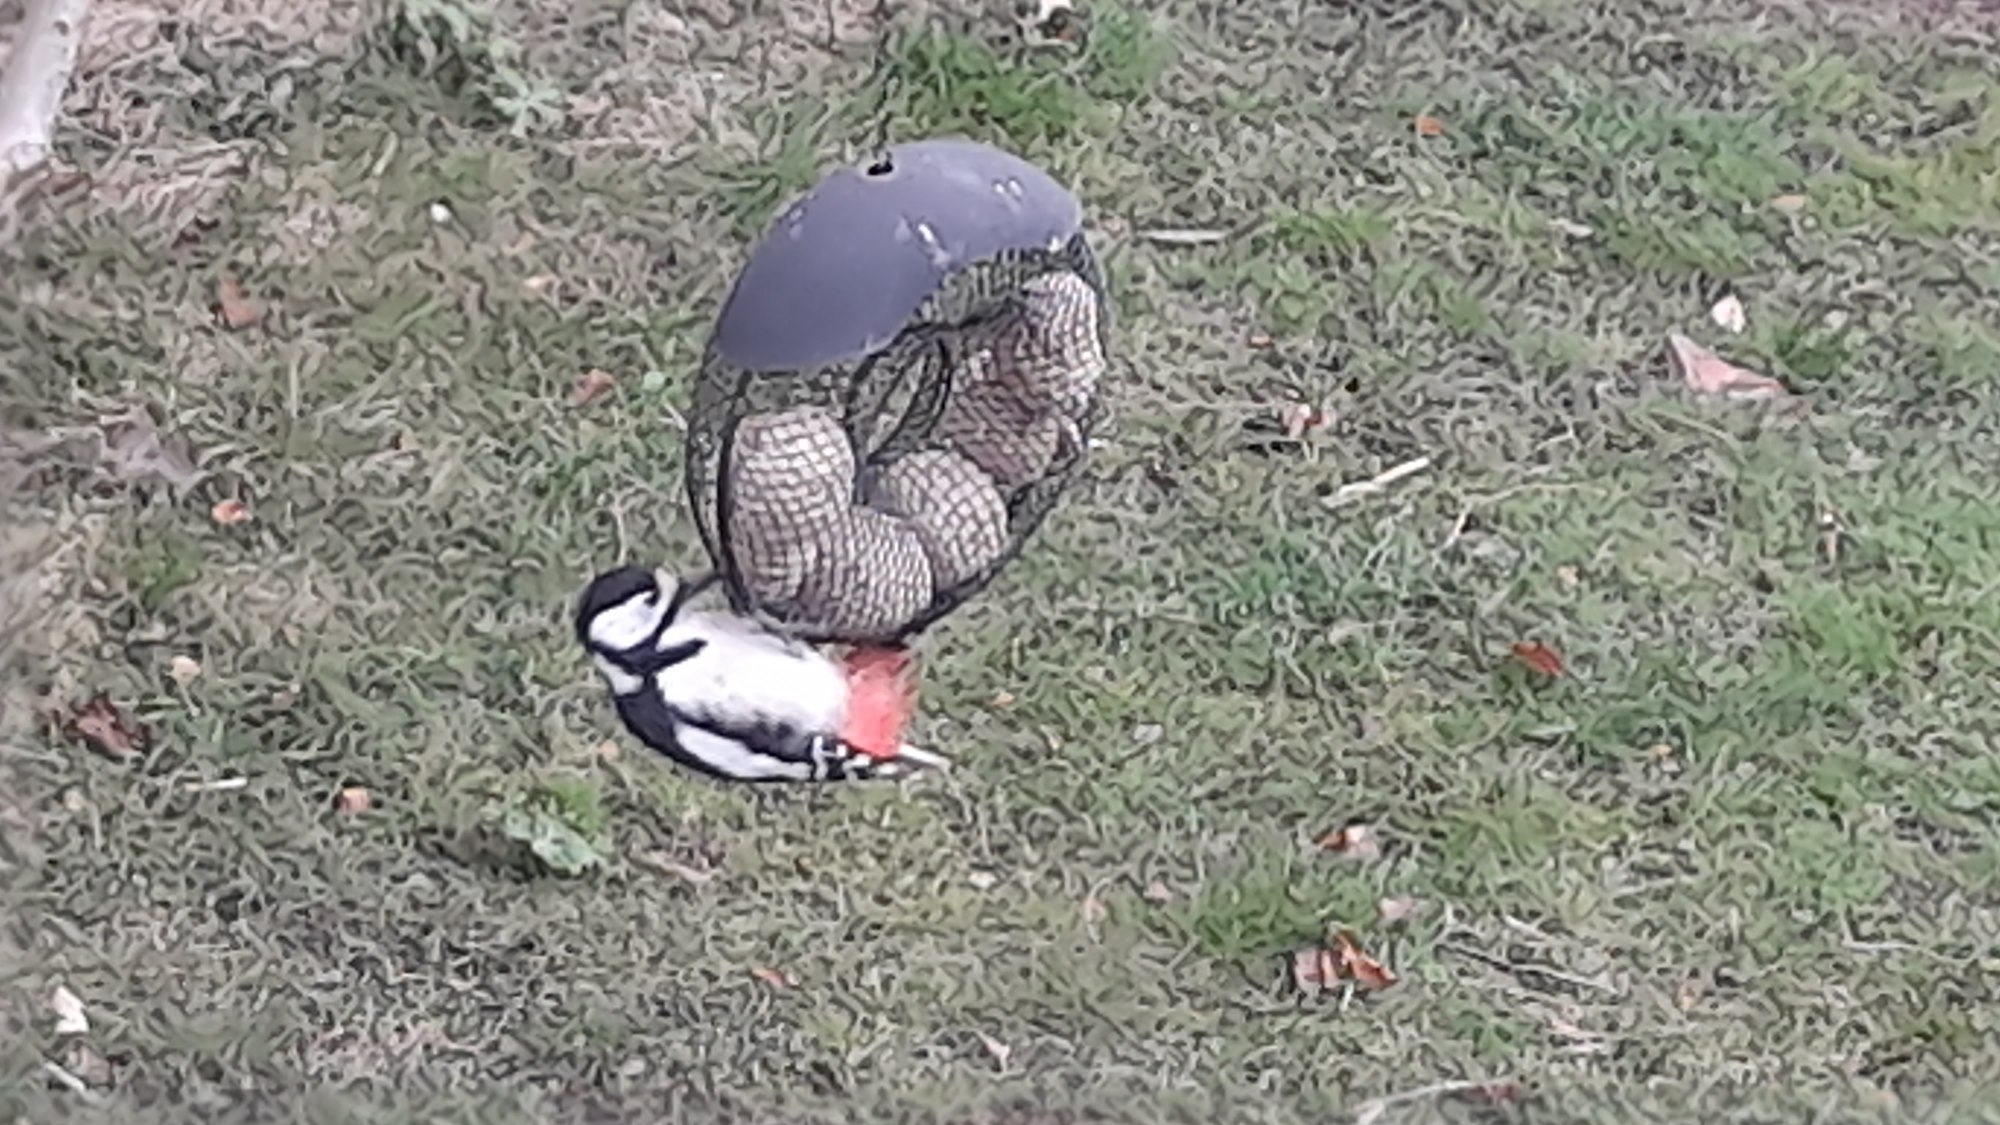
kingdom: Animalia
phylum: Chordata
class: Aves
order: Piciformes
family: Picidae
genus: Dendrocopos
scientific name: Dendrocopos major
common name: Stor flagspætte
